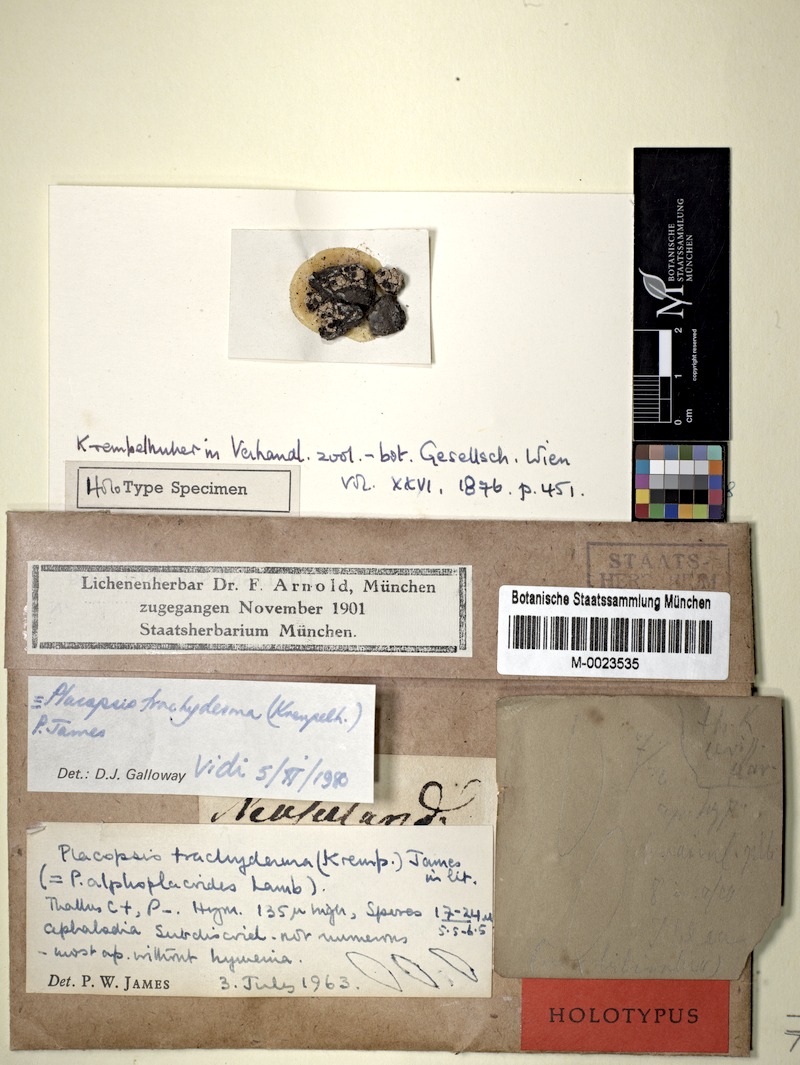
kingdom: Fungi
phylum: Ascomycota
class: Lecanoromycetes
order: Baeomycetales
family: Trapeliaceae
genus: Placopsis
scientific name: Placopsis
